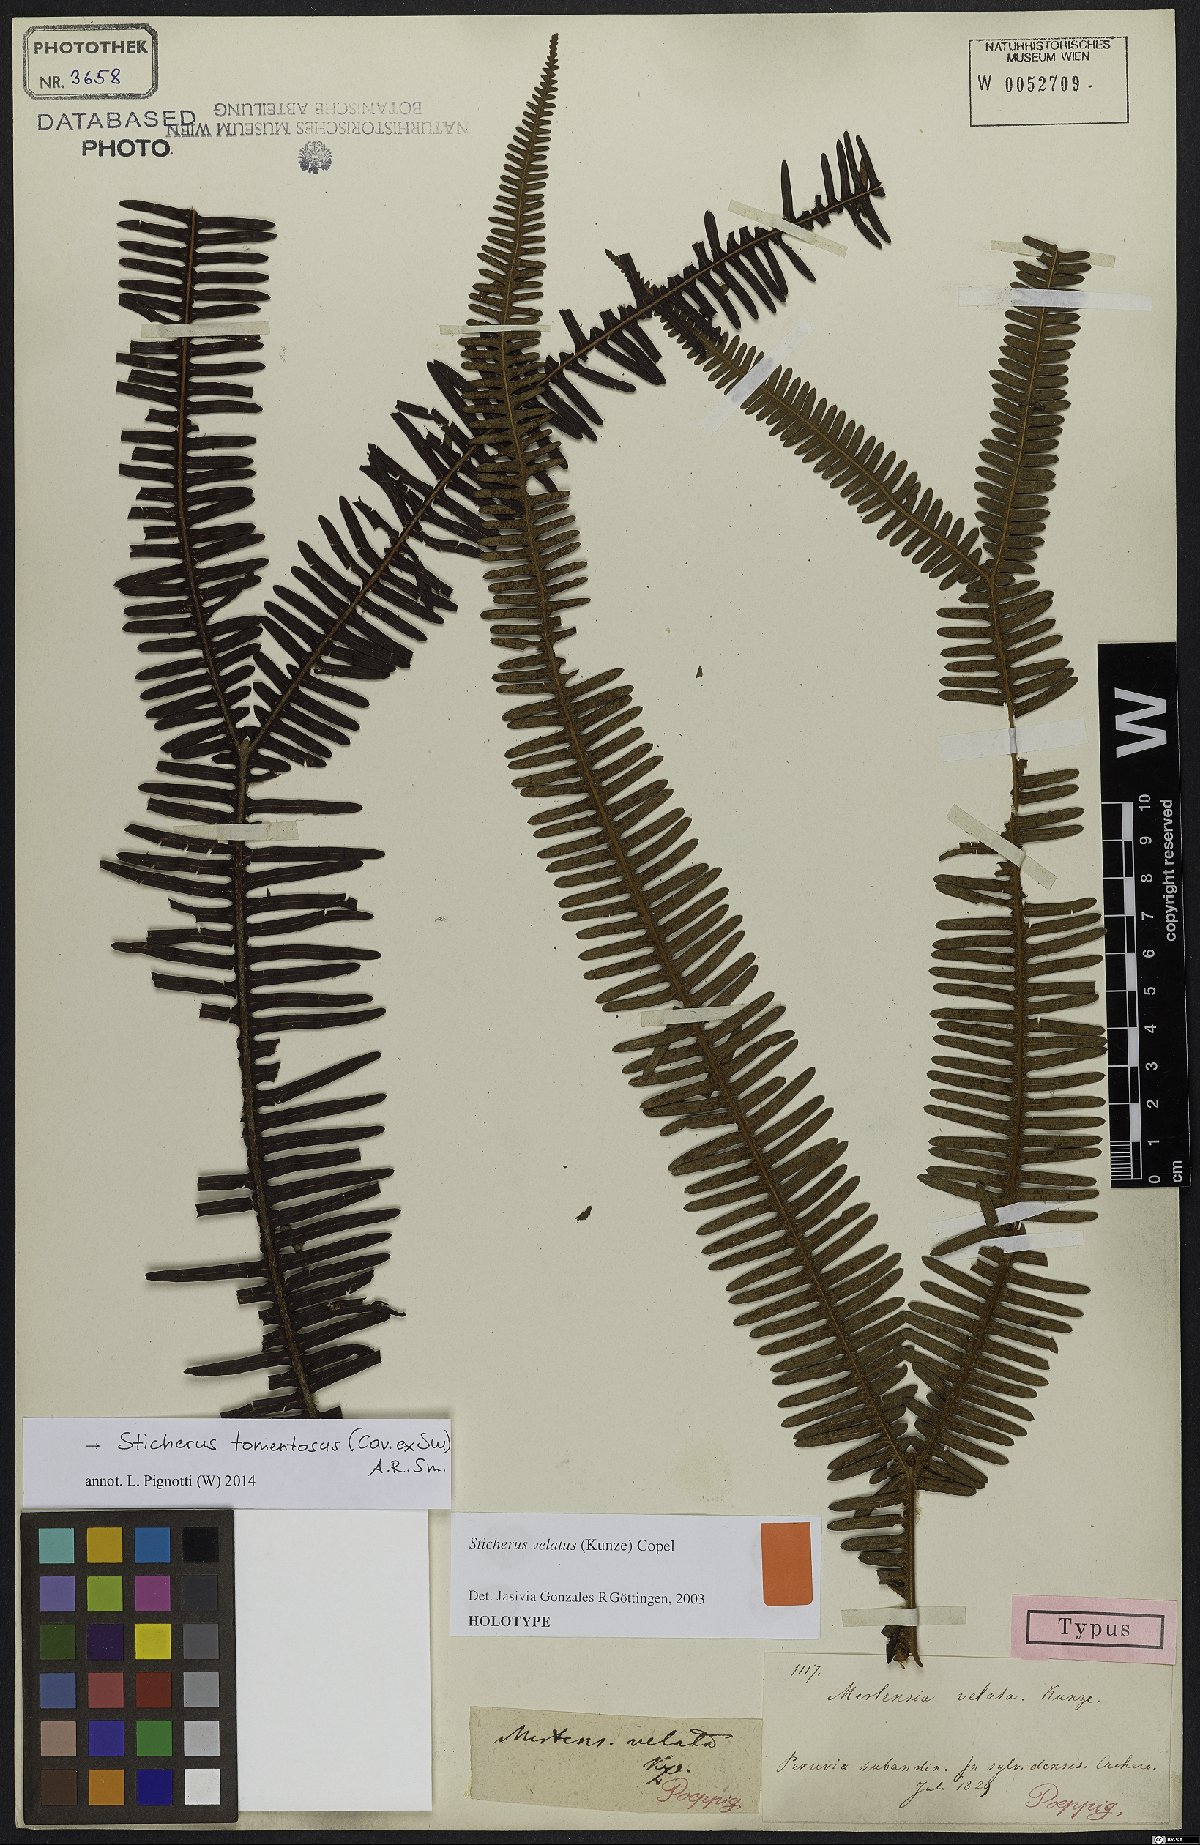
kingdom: Plantae
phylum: Tracheophyta
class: Polypodiopsida
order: Gleicheniales
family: Gleicheniaceae
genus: Sticherus
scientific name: Sticherus tomentosus
